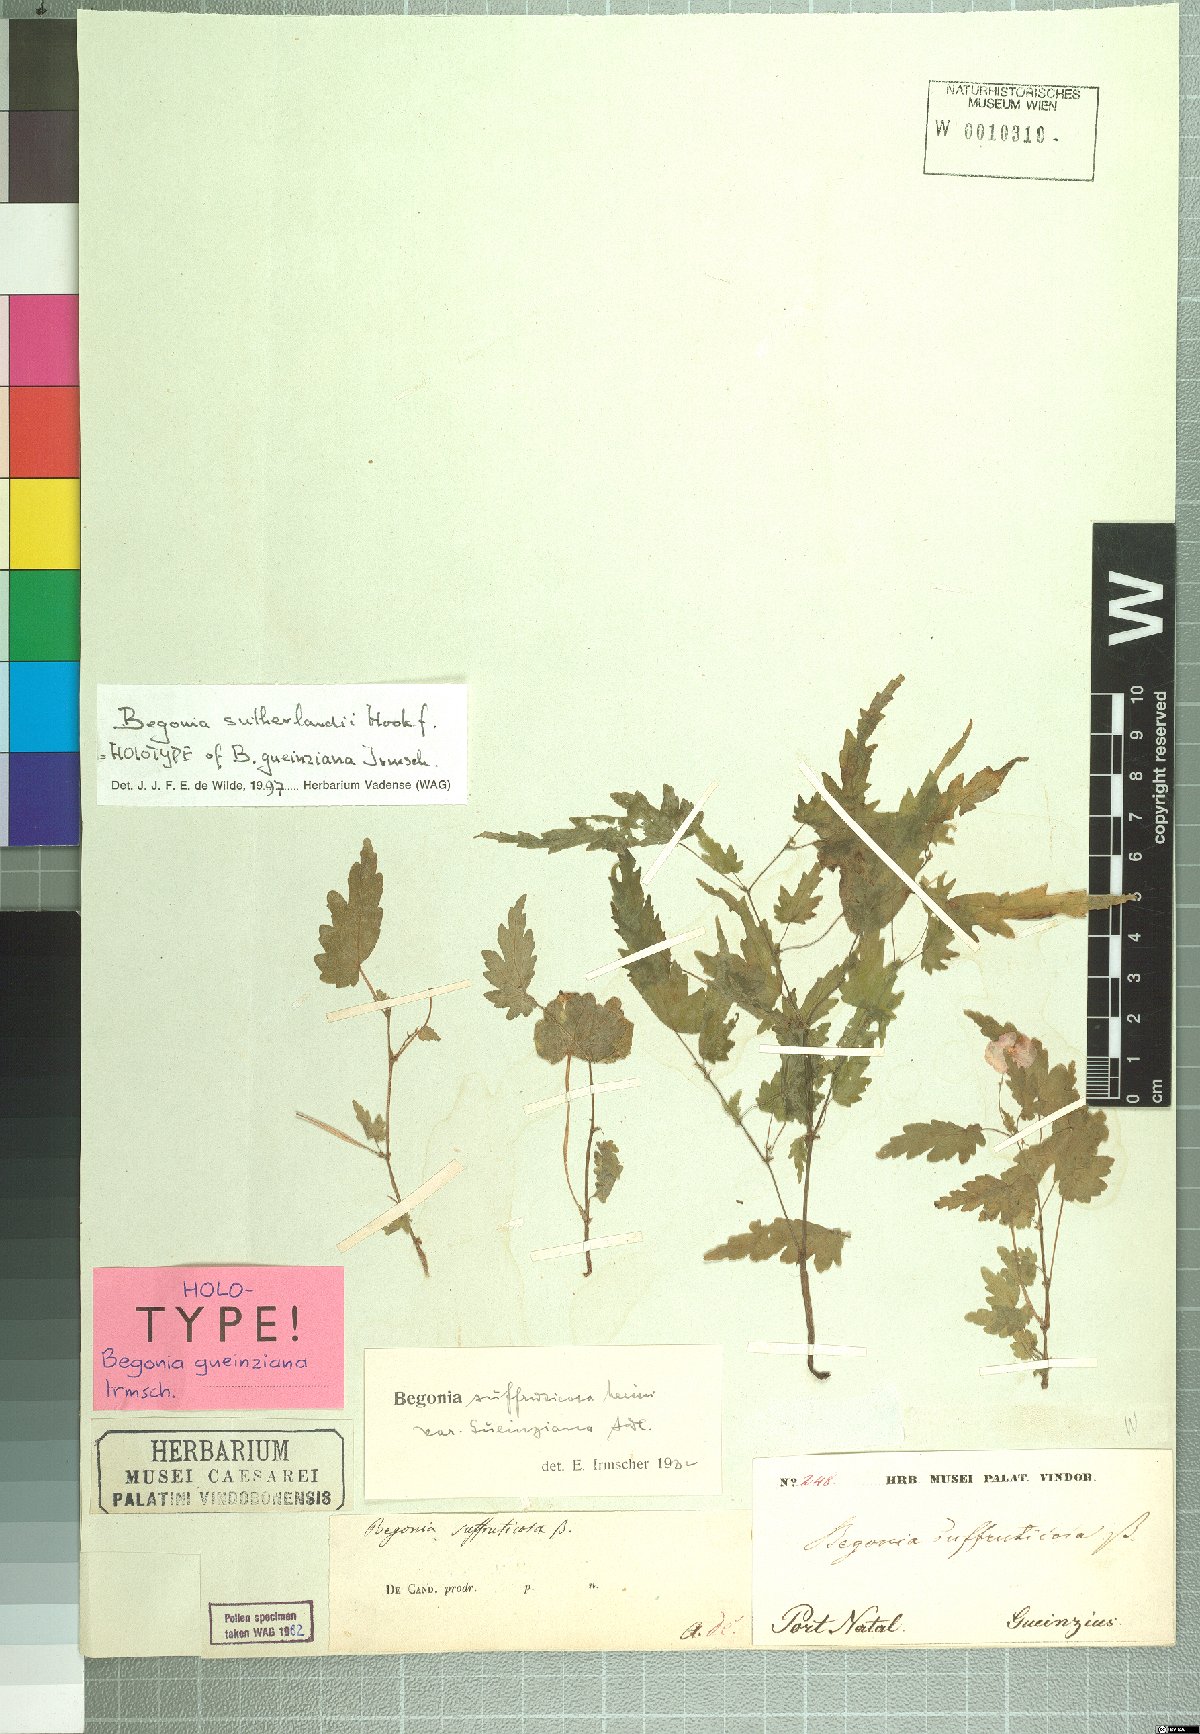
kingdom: Plantae
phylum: Tracheophyta
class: Magnoliopsida
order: Cucurbitales
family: Begoniaceae
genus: Begonia
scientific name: Begonia sutherlandii
